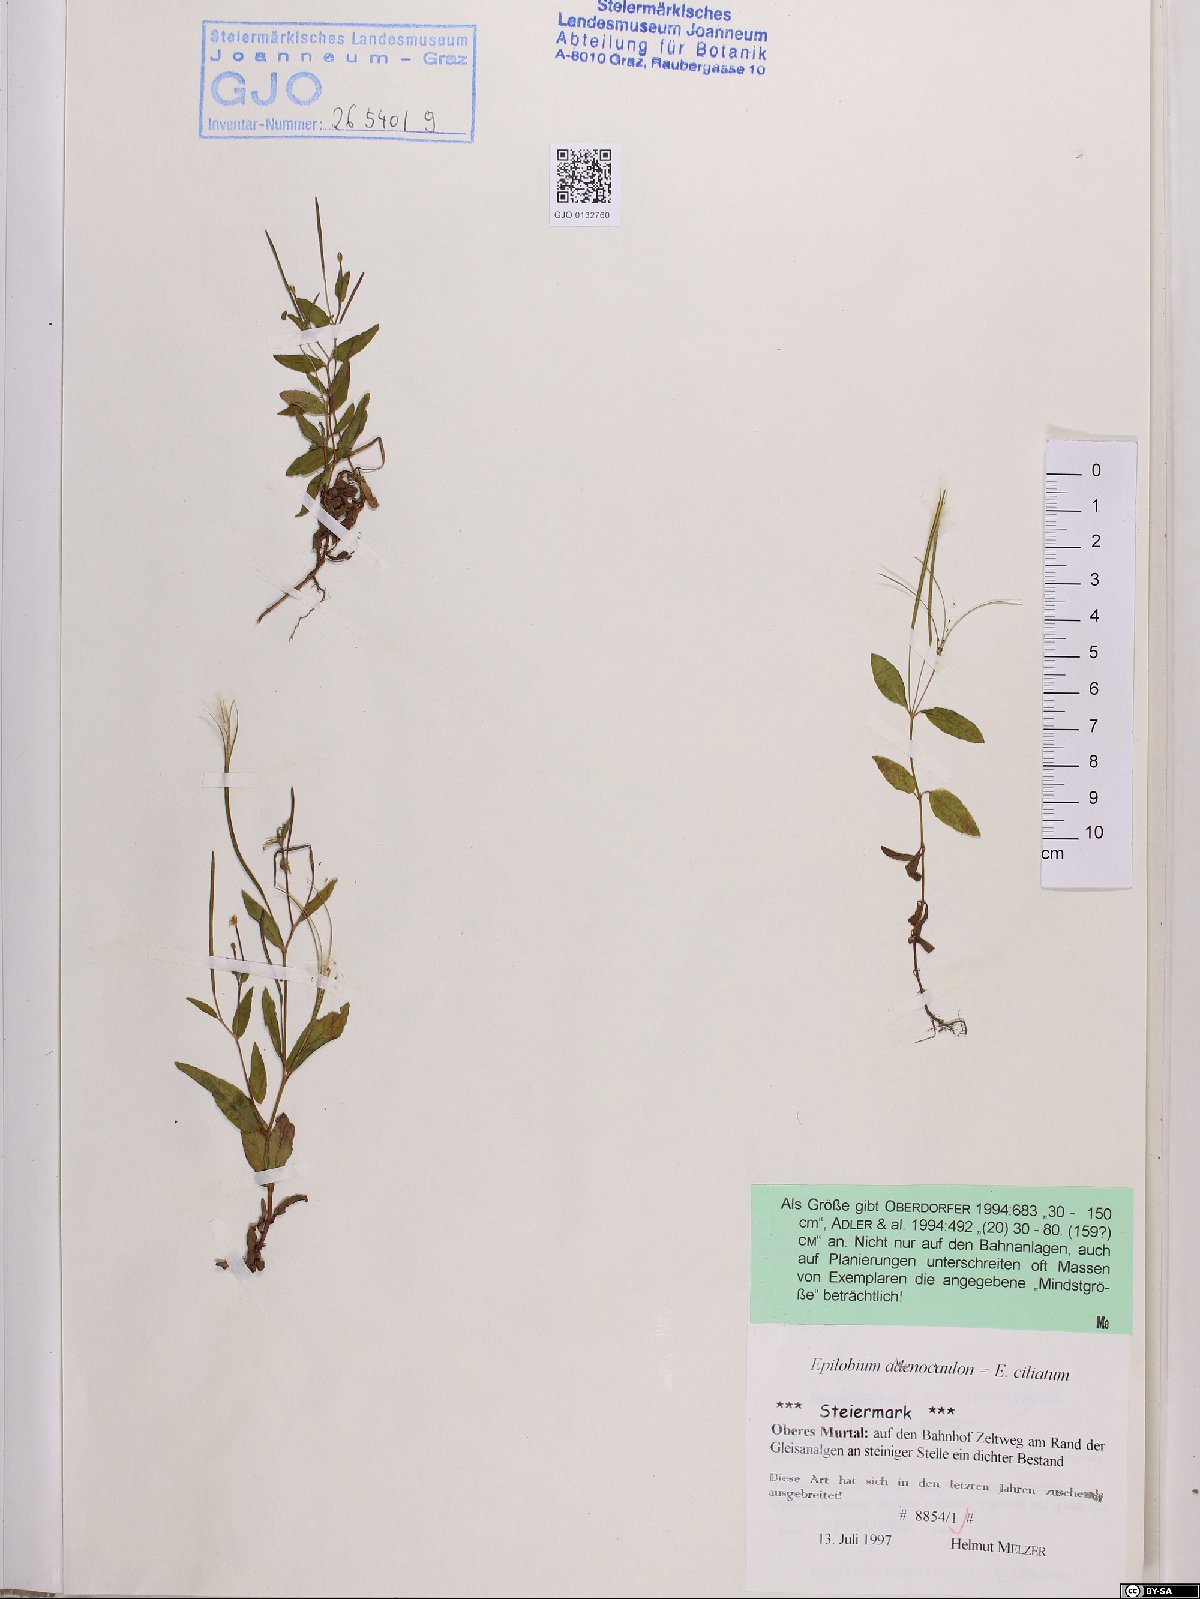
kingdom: Plantae
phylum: Tracheophyta
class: Magnoliopsida
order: Myrtales
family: Onagraceae
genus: Epilobium
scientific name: Epilobium ciliatum
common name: American willowherb
